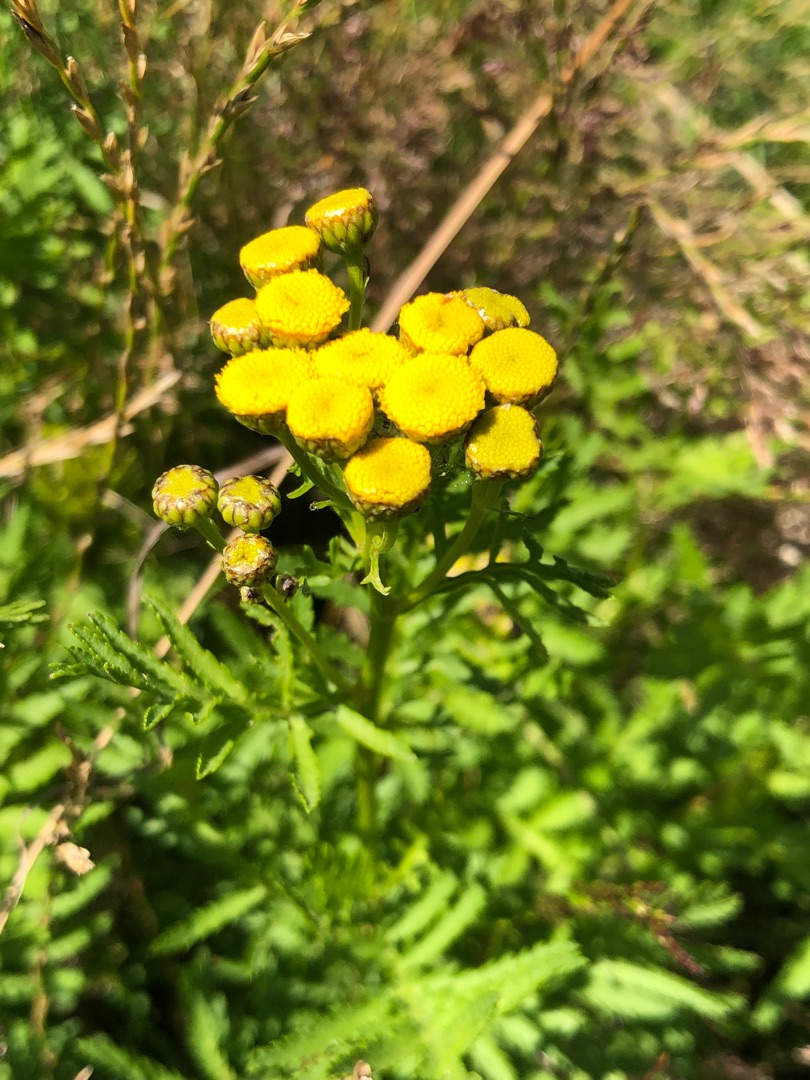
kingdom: Plantae
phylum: Tracheophyta
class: Magnoliopsida
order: Asterales
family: Asteraceae
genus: Tanacetum
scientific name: Tanacetum vulgare
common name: Rejnfan
